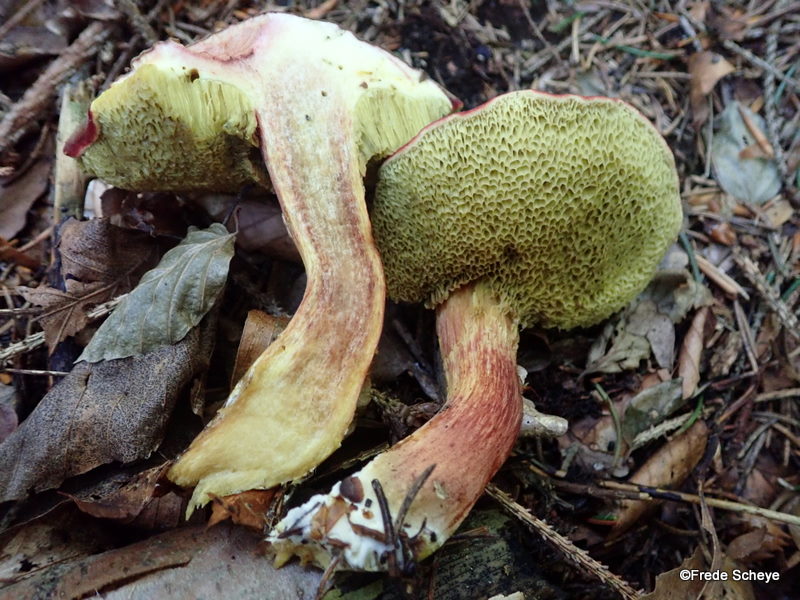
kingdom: Fungi
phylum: Basidiomycota
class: Agaricomycetes
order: Boletales
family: Boletaceae
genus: Xerocomellus
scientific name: Xerocomellus pruinatus
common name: dugget rørhat
